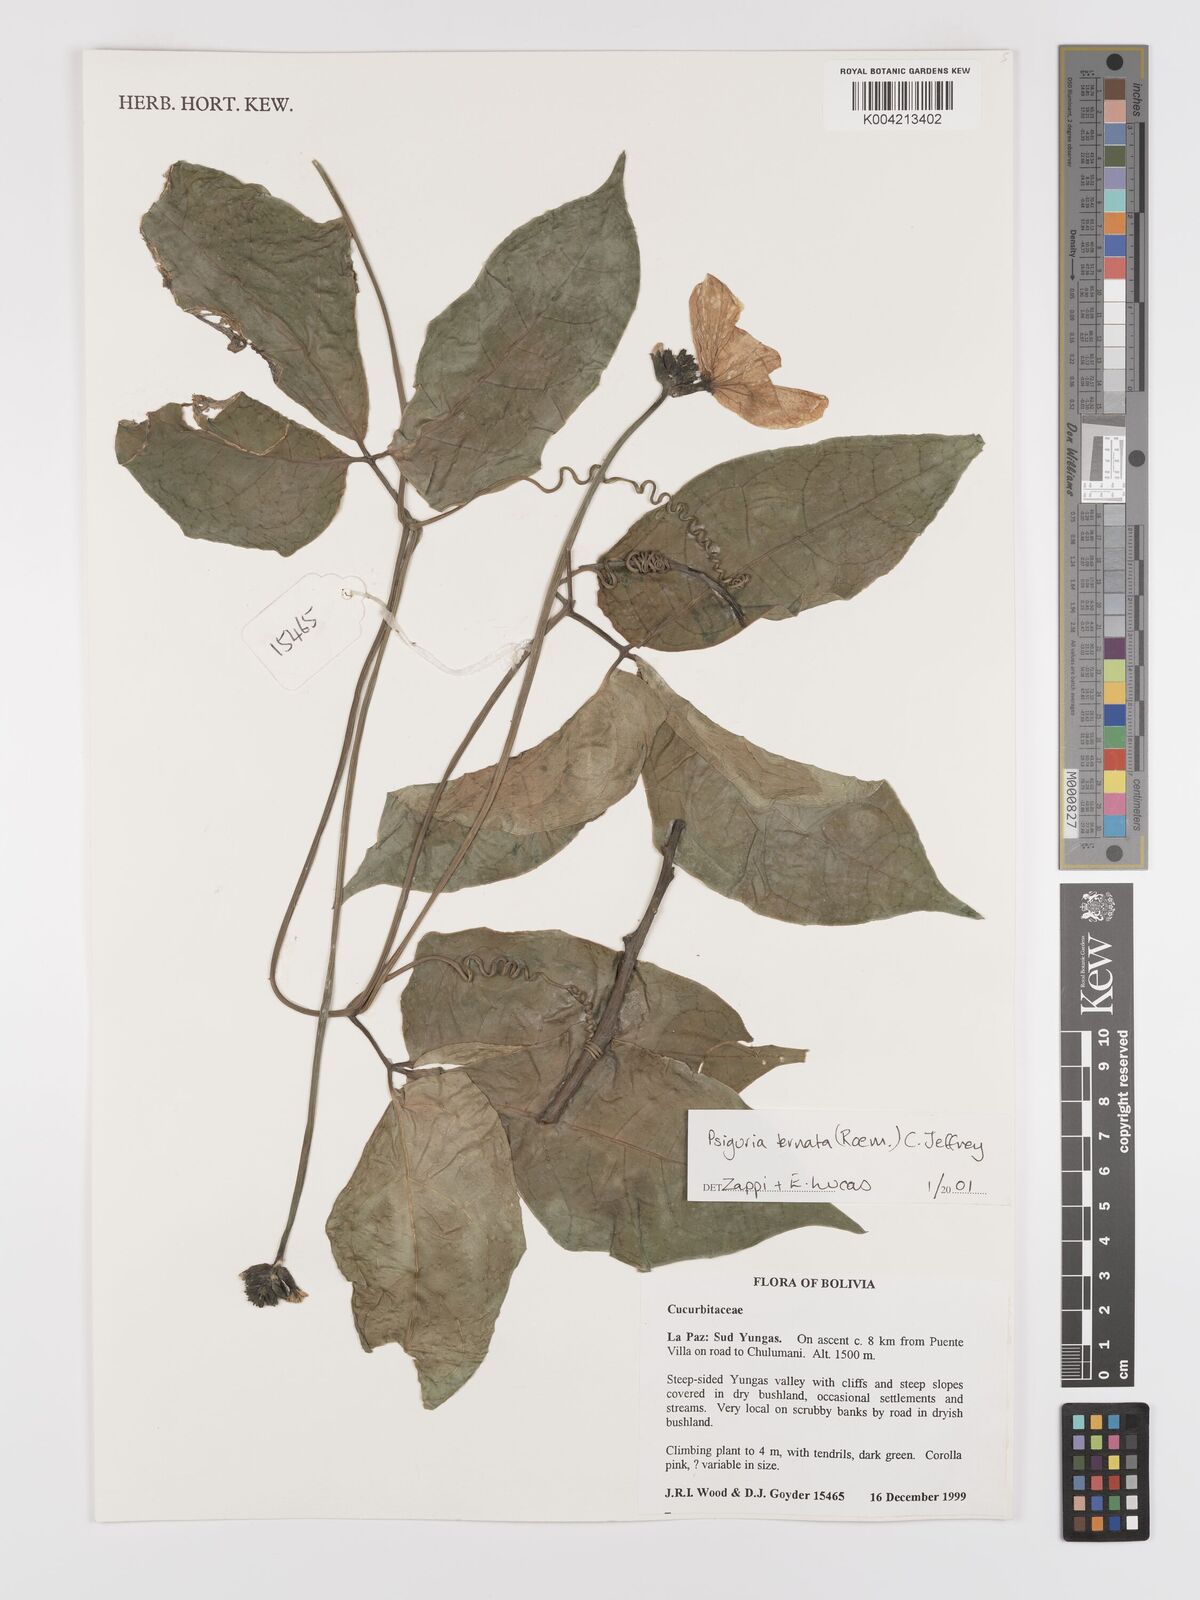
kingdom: Plantae
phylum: Tracheophyta
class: Magnoliopsida
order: Cucurbitales
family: Cucurbitaceae
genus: Psiguria
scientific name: Psiguria ternata
